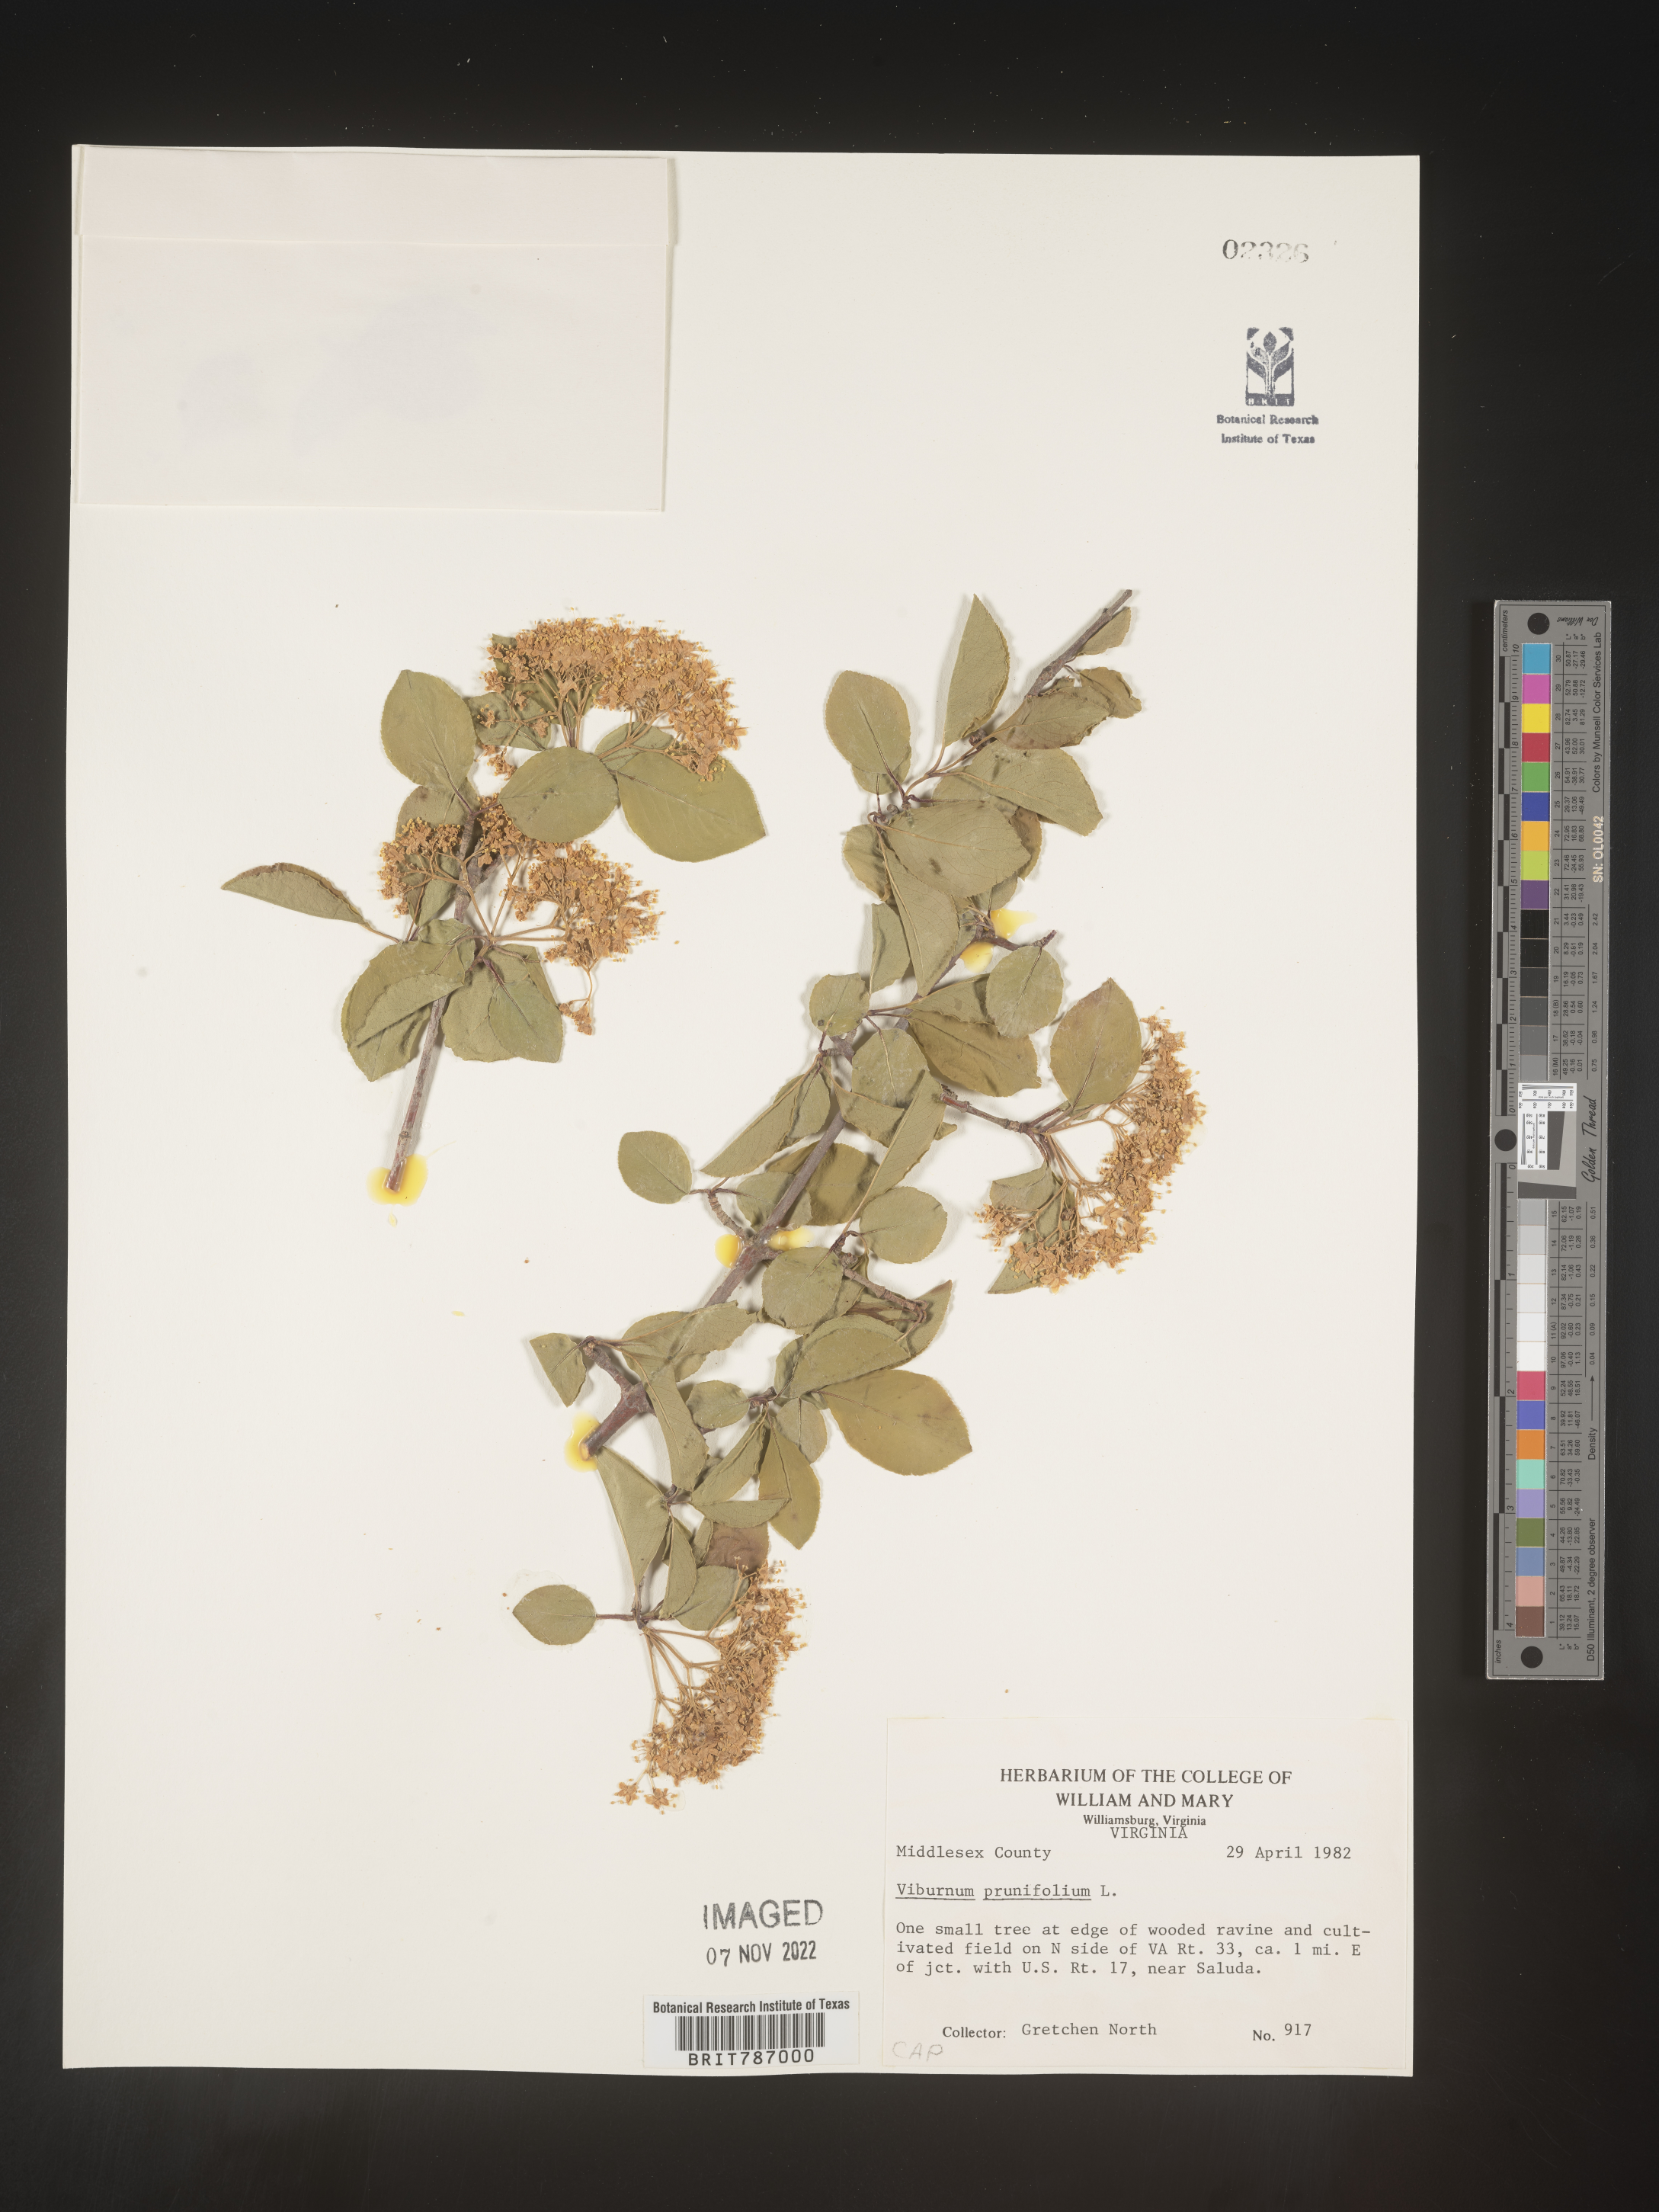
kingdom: Plantae
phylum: Tracheophyta
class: Magnoliopsida
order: Dipsacales
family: Viburnaceae
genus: Viburnum
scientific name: Viburnum prunifolium
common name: Black haw
